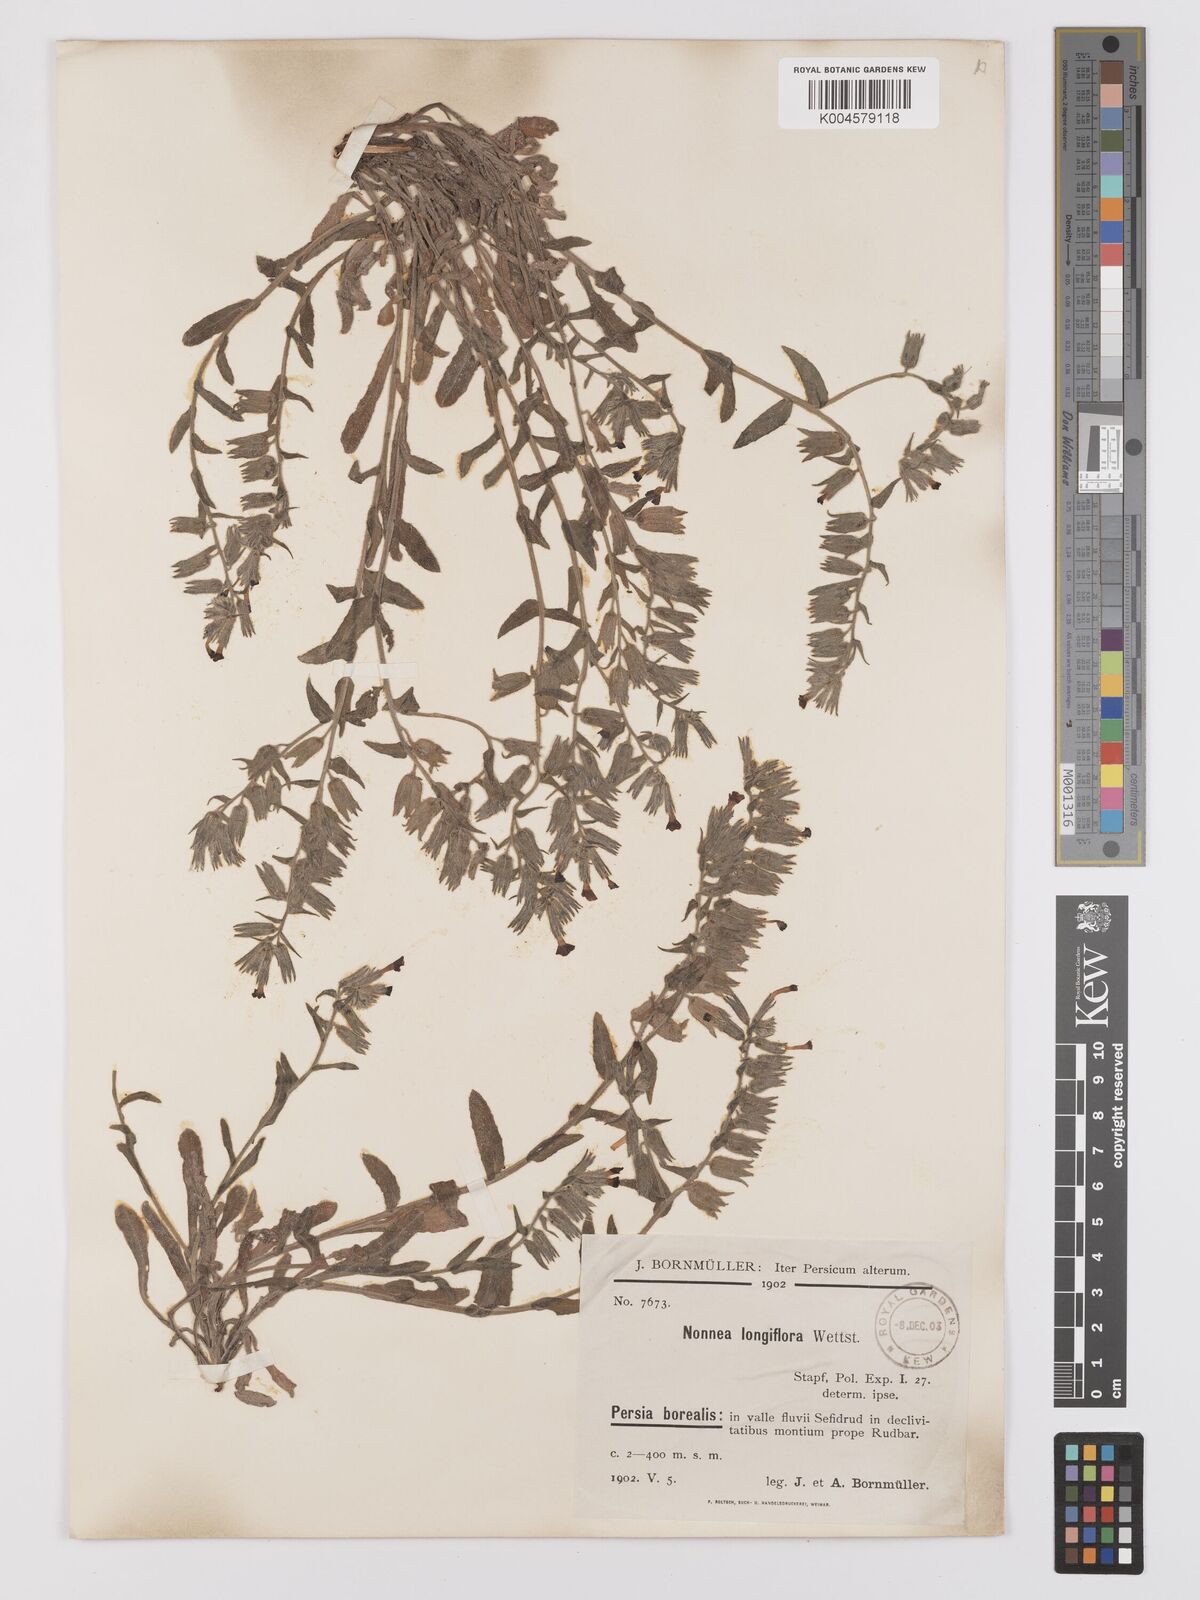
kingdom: Plantae
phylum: Tracheophyta
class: Magnoliopsida
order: Boraginales
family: Boraginaceae
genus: Nonea
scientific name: Nonea longiflora
